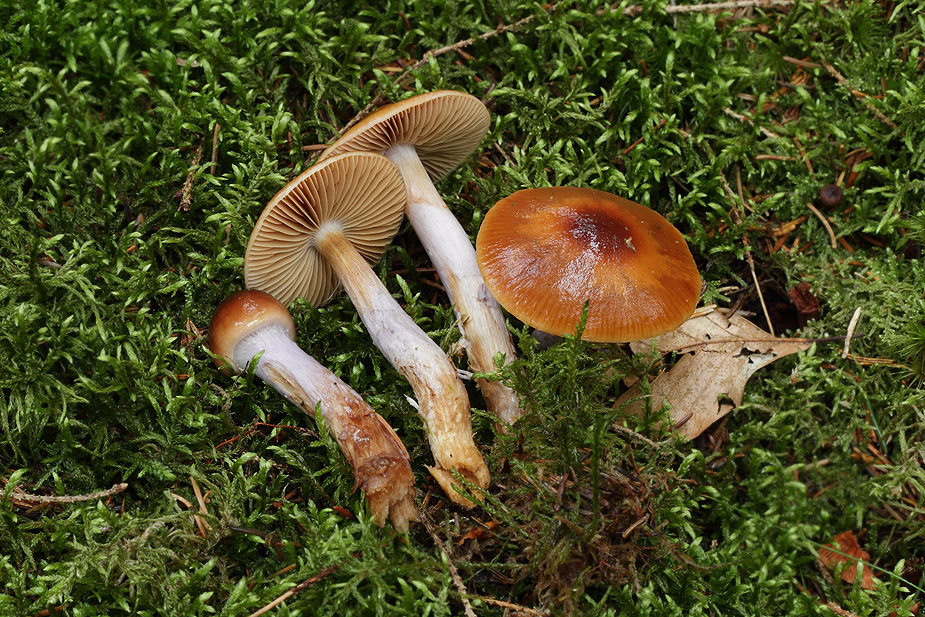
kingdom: Fungi
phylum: Basidiomycota
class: Agaricomycetes
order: Agaricales
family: Cortinariaceae
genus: Cortinarius
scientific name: Cortinarius collinitus
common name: spættet slørhat
